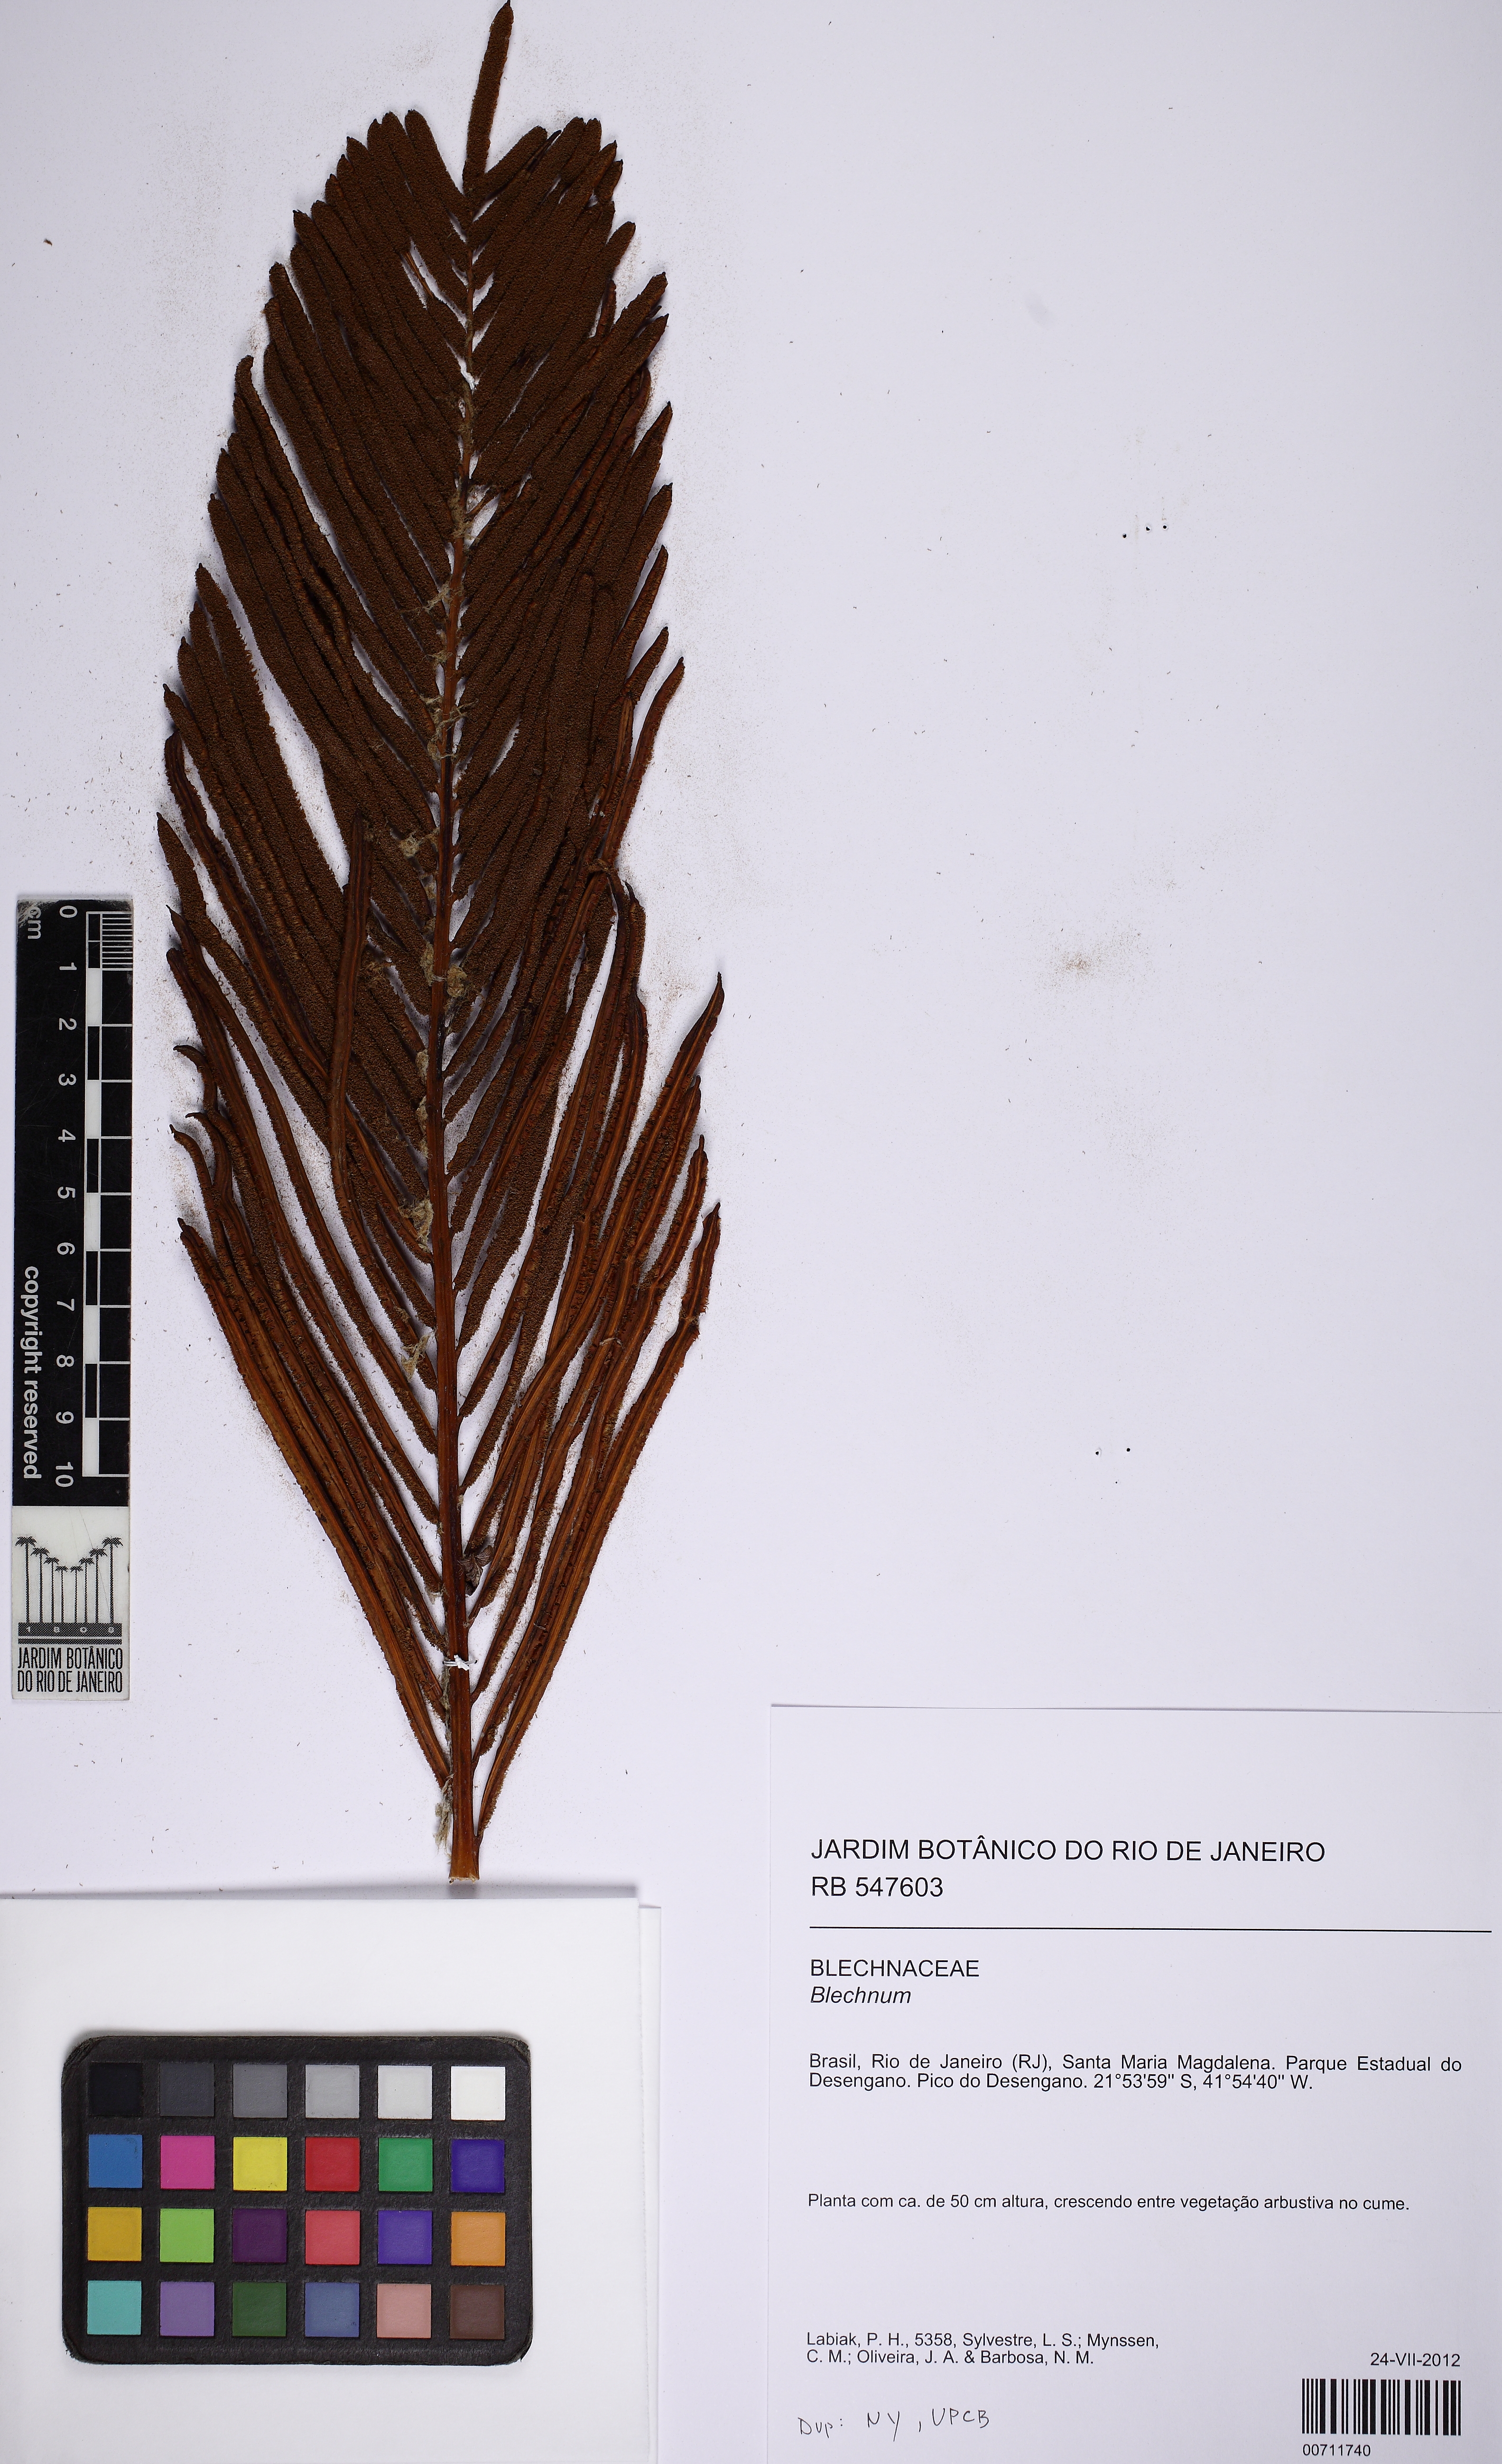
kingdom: Plantae
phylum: Tracheophyta
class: Polypodiopsida
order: Polypodiales
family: Blechnaceae
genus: Lomariocycas
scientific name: Lomariocycas schomburgkii
